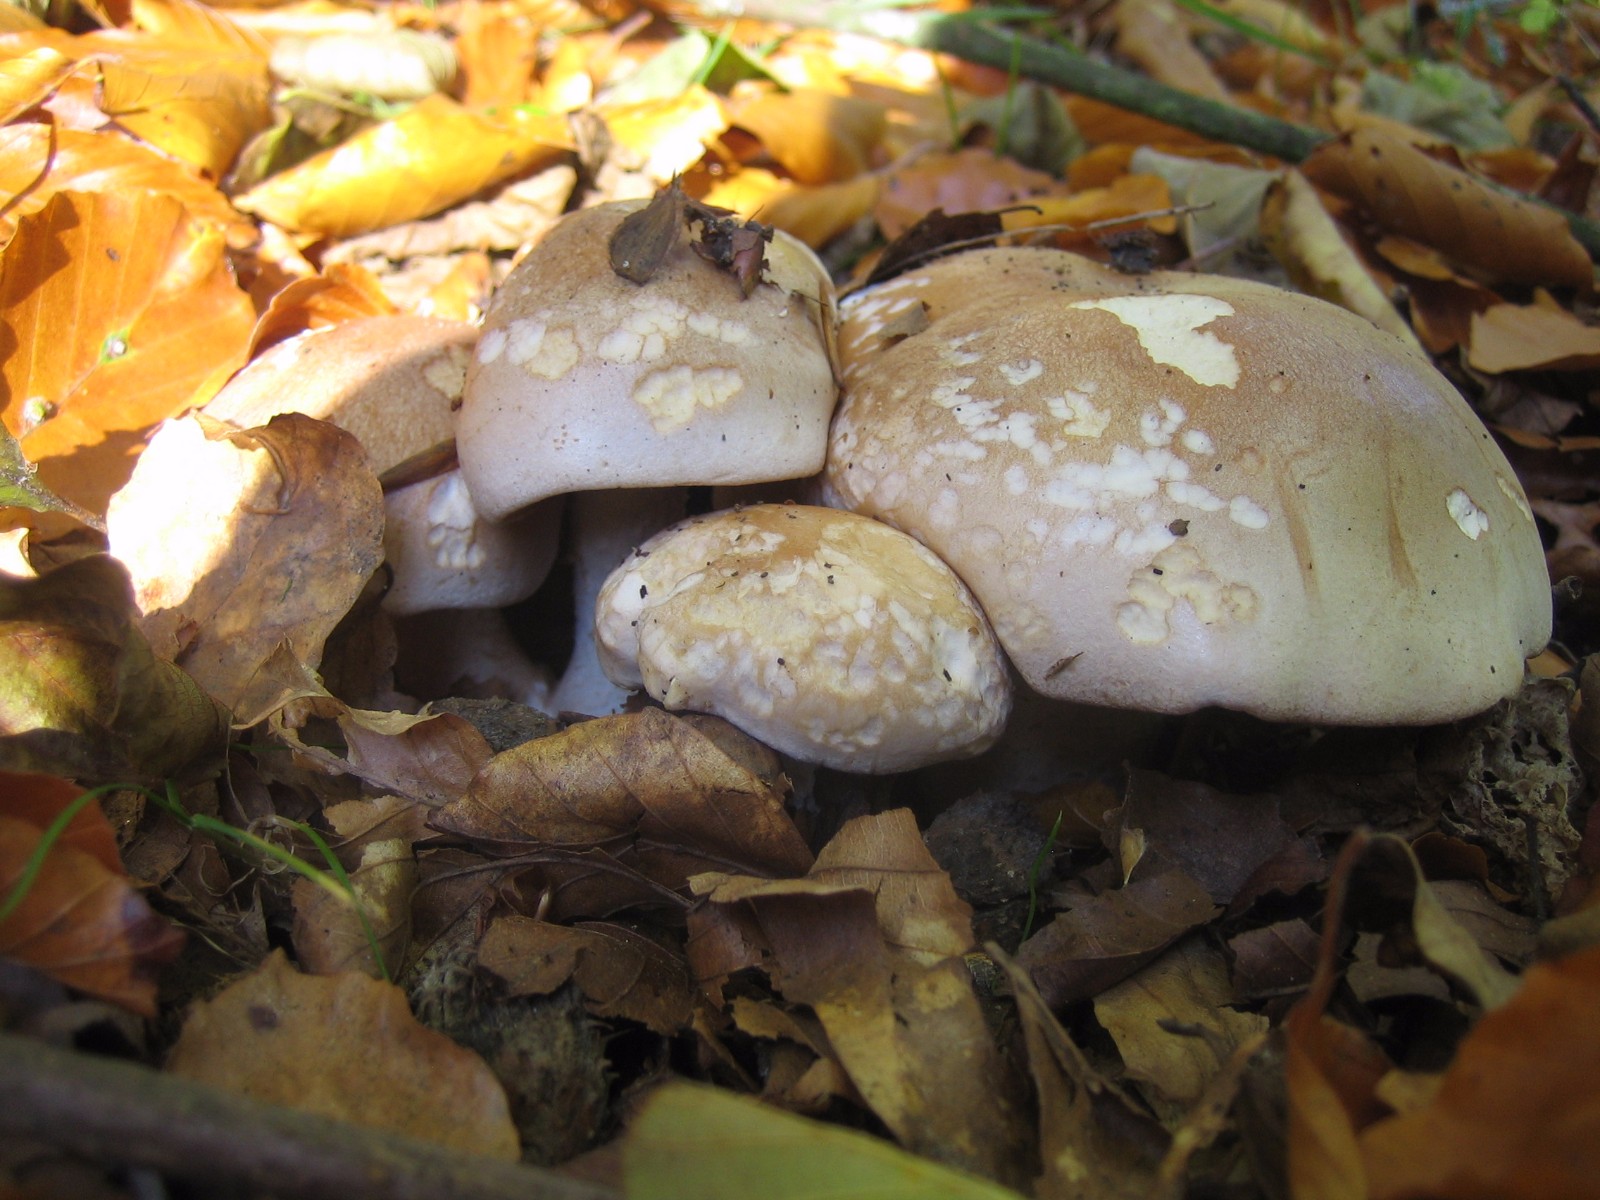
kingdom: Fungi
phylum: Basidiomycota
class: Agaricomycetes
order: Agaricales
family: Cortinariaceae
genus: Cortinarius
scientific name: Cortinarius largus
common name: violetrandet slørhat
